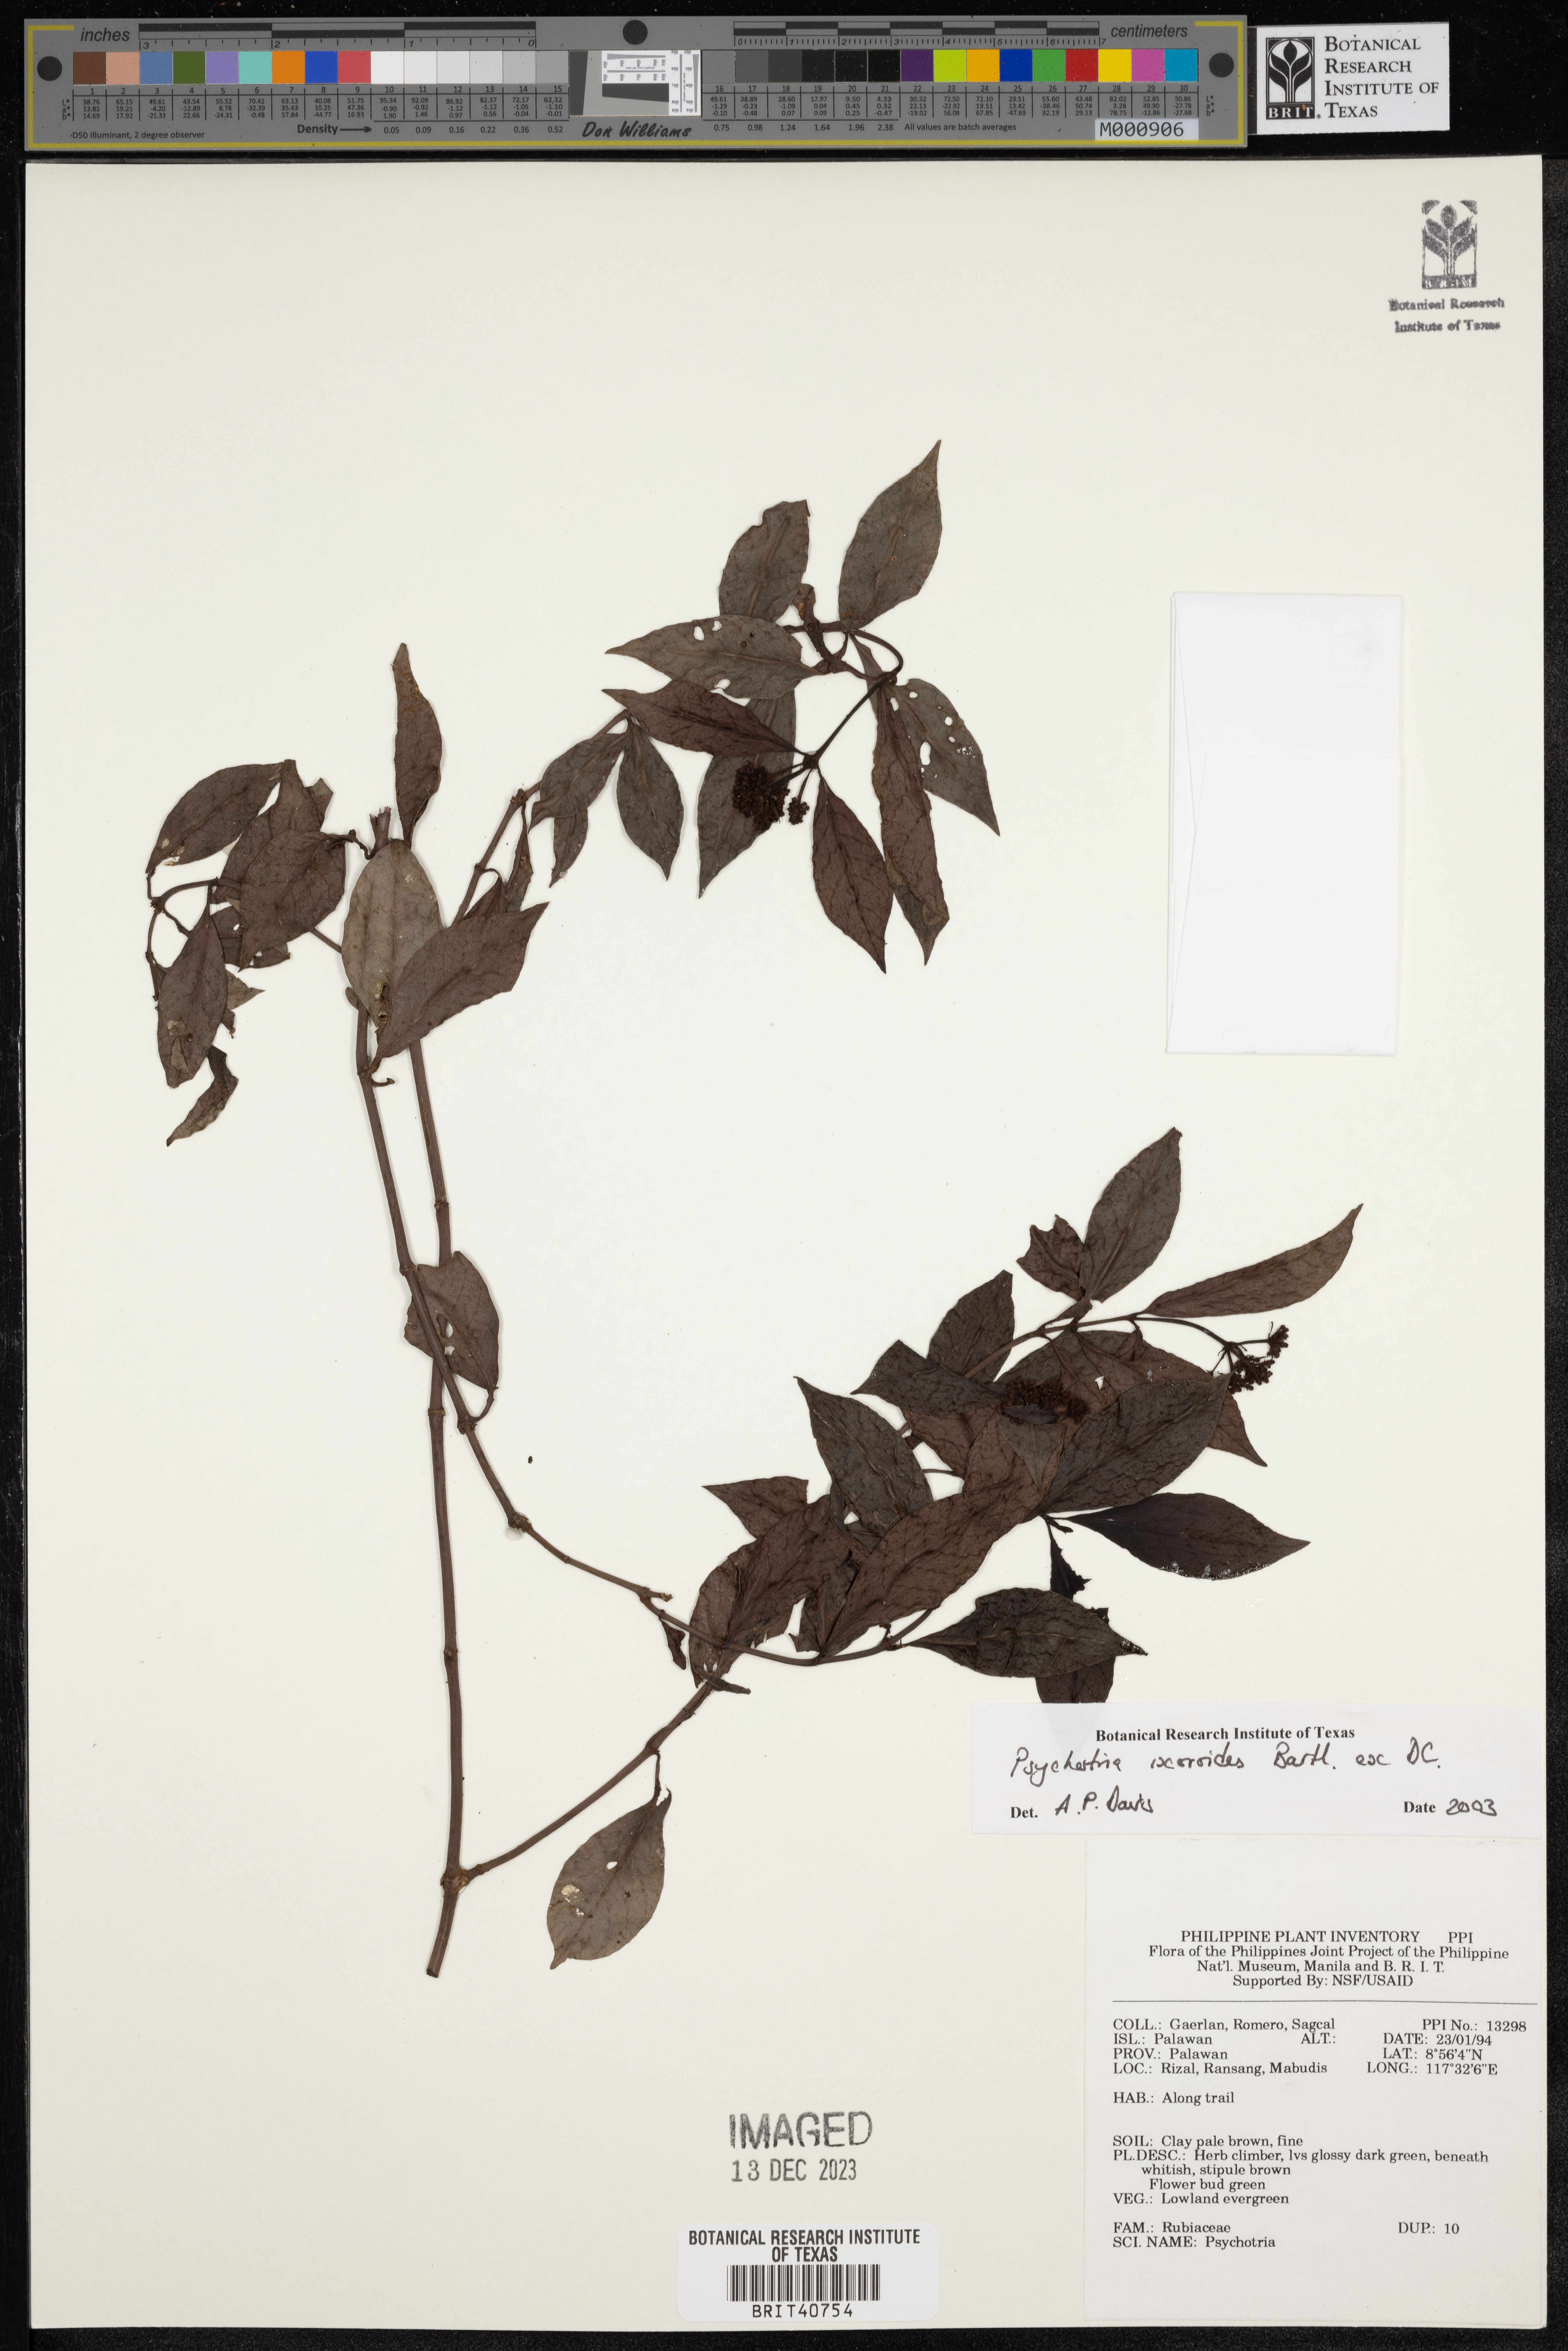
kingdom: Plantae
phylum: Tracheophyta
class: Magnoliopsida
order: Gentianales
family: Rubiaceae
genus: Psychotria
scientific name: Psychotria ixoroides
